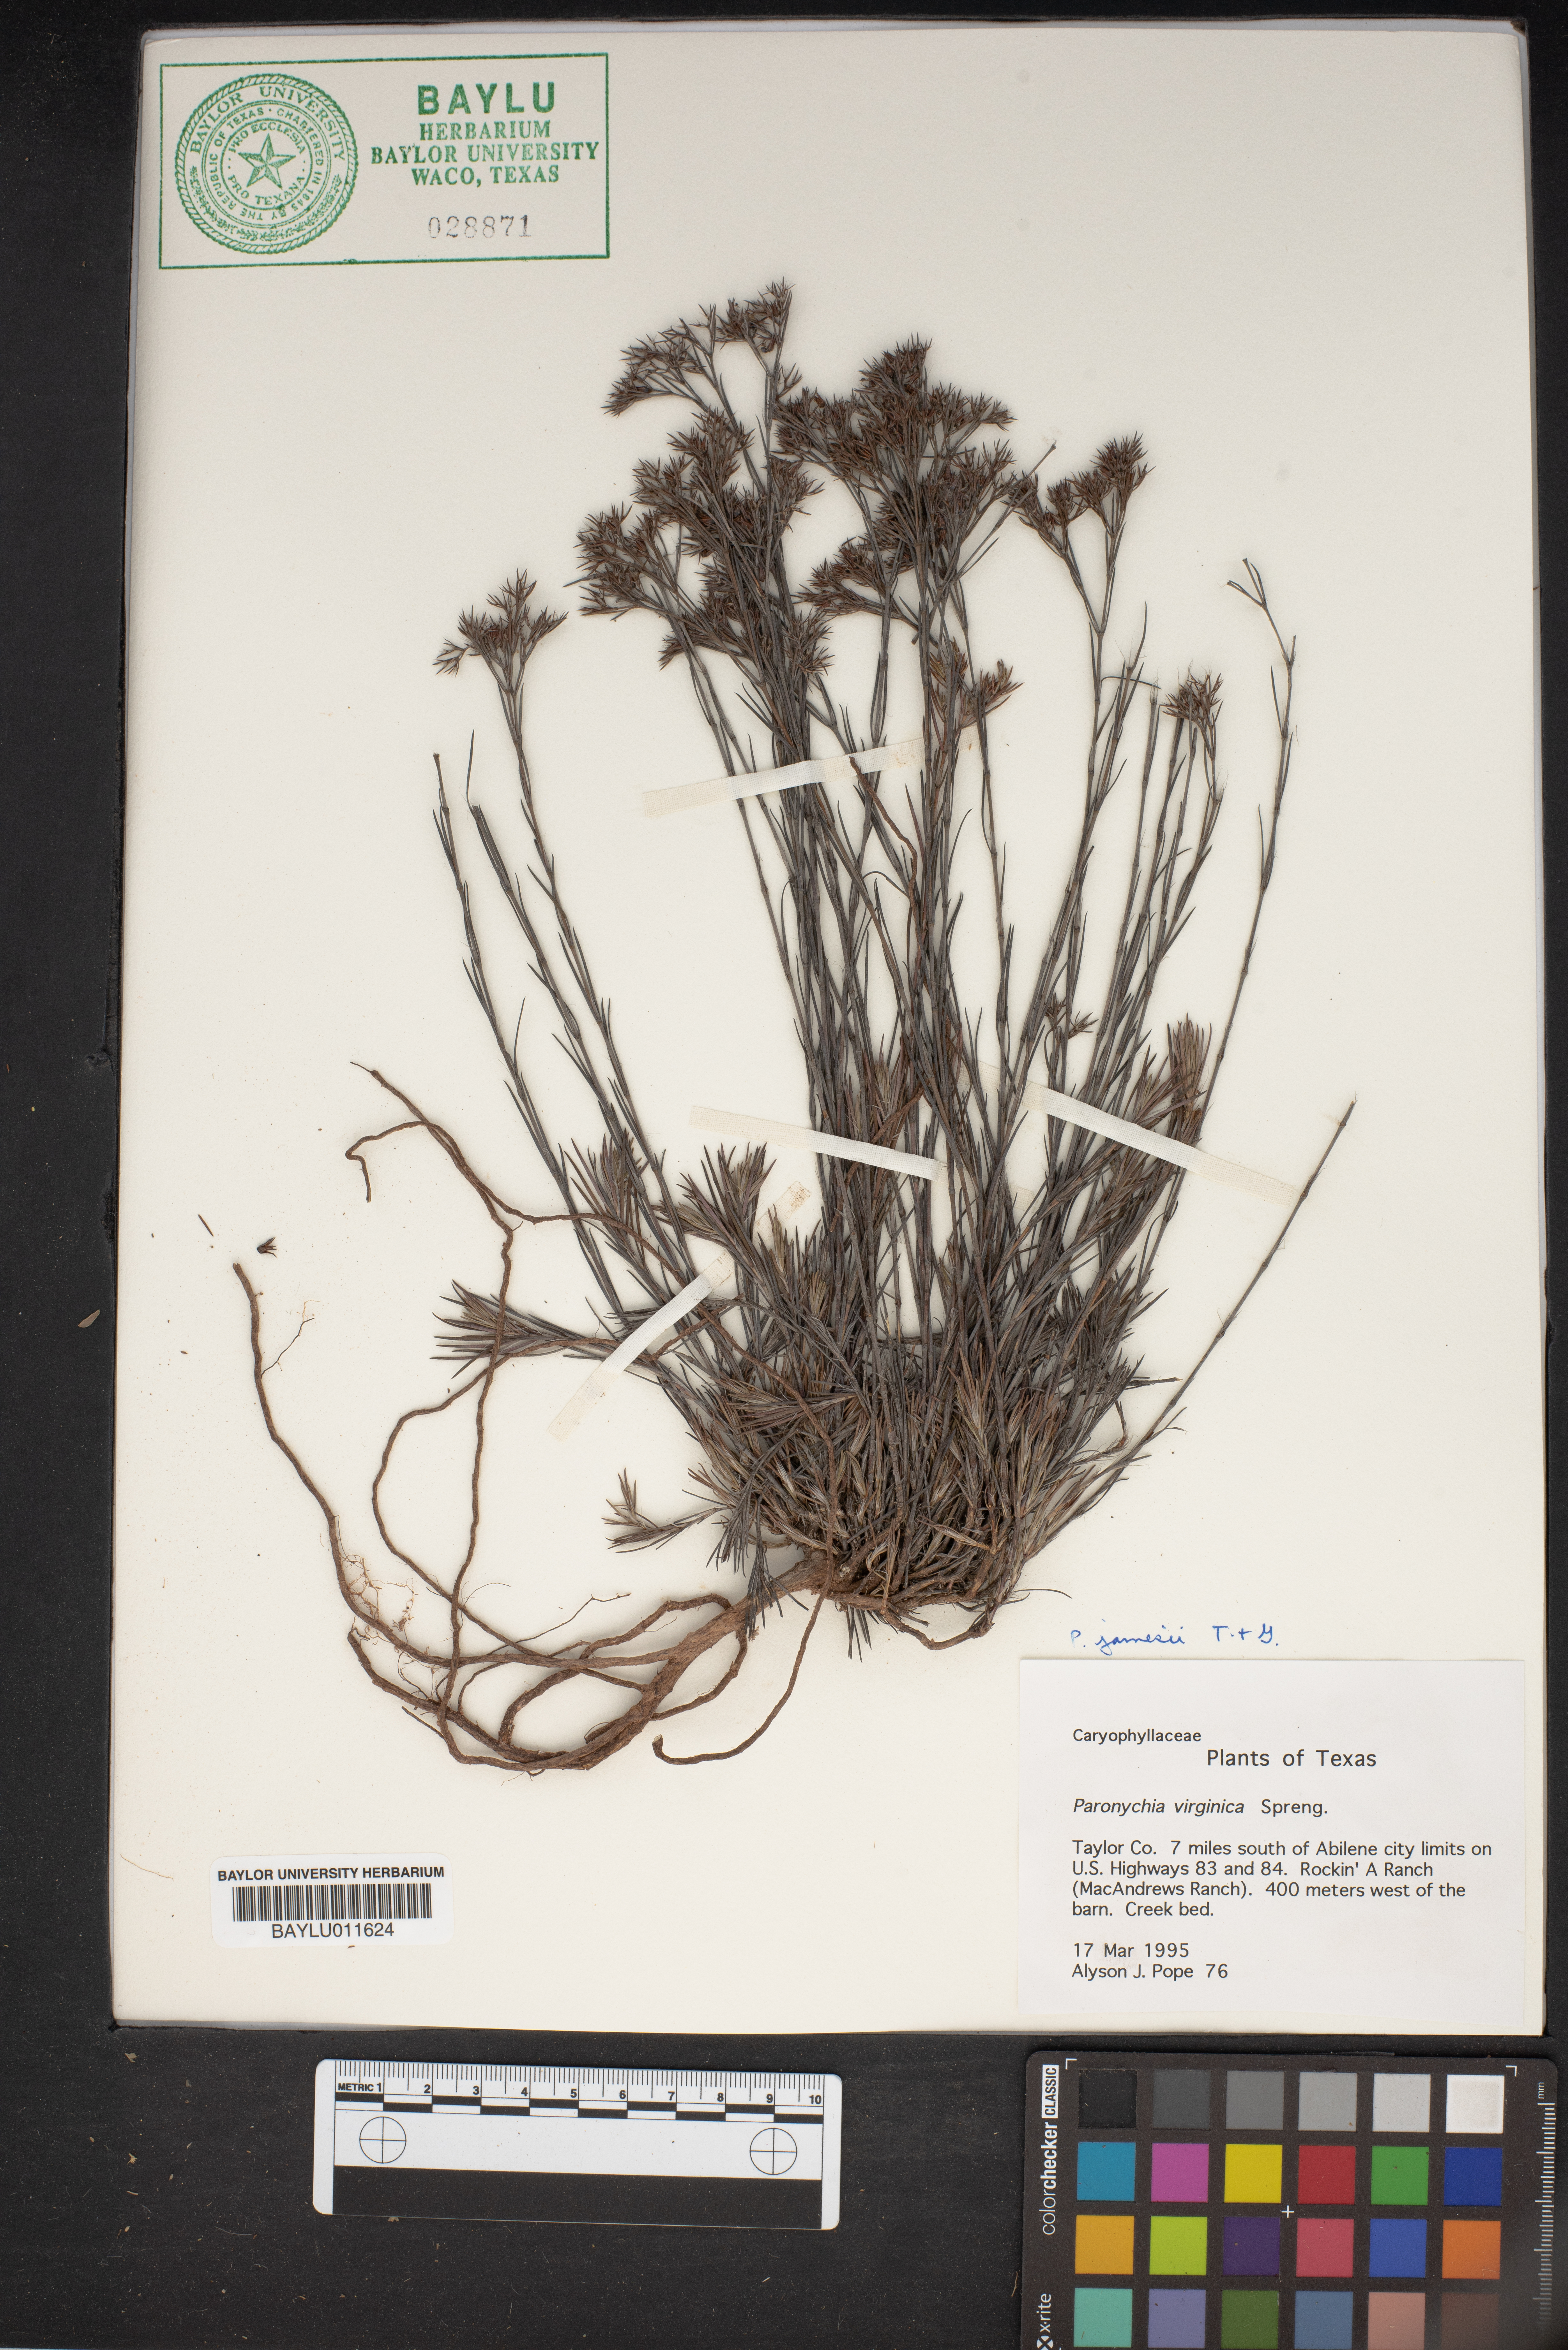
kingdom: Plantae
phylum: Tracheophyta
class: Magnoliopsida
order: Caryophyllales
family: Caryophyllaceae
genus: Paronychia
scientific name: Paronychia virginica
